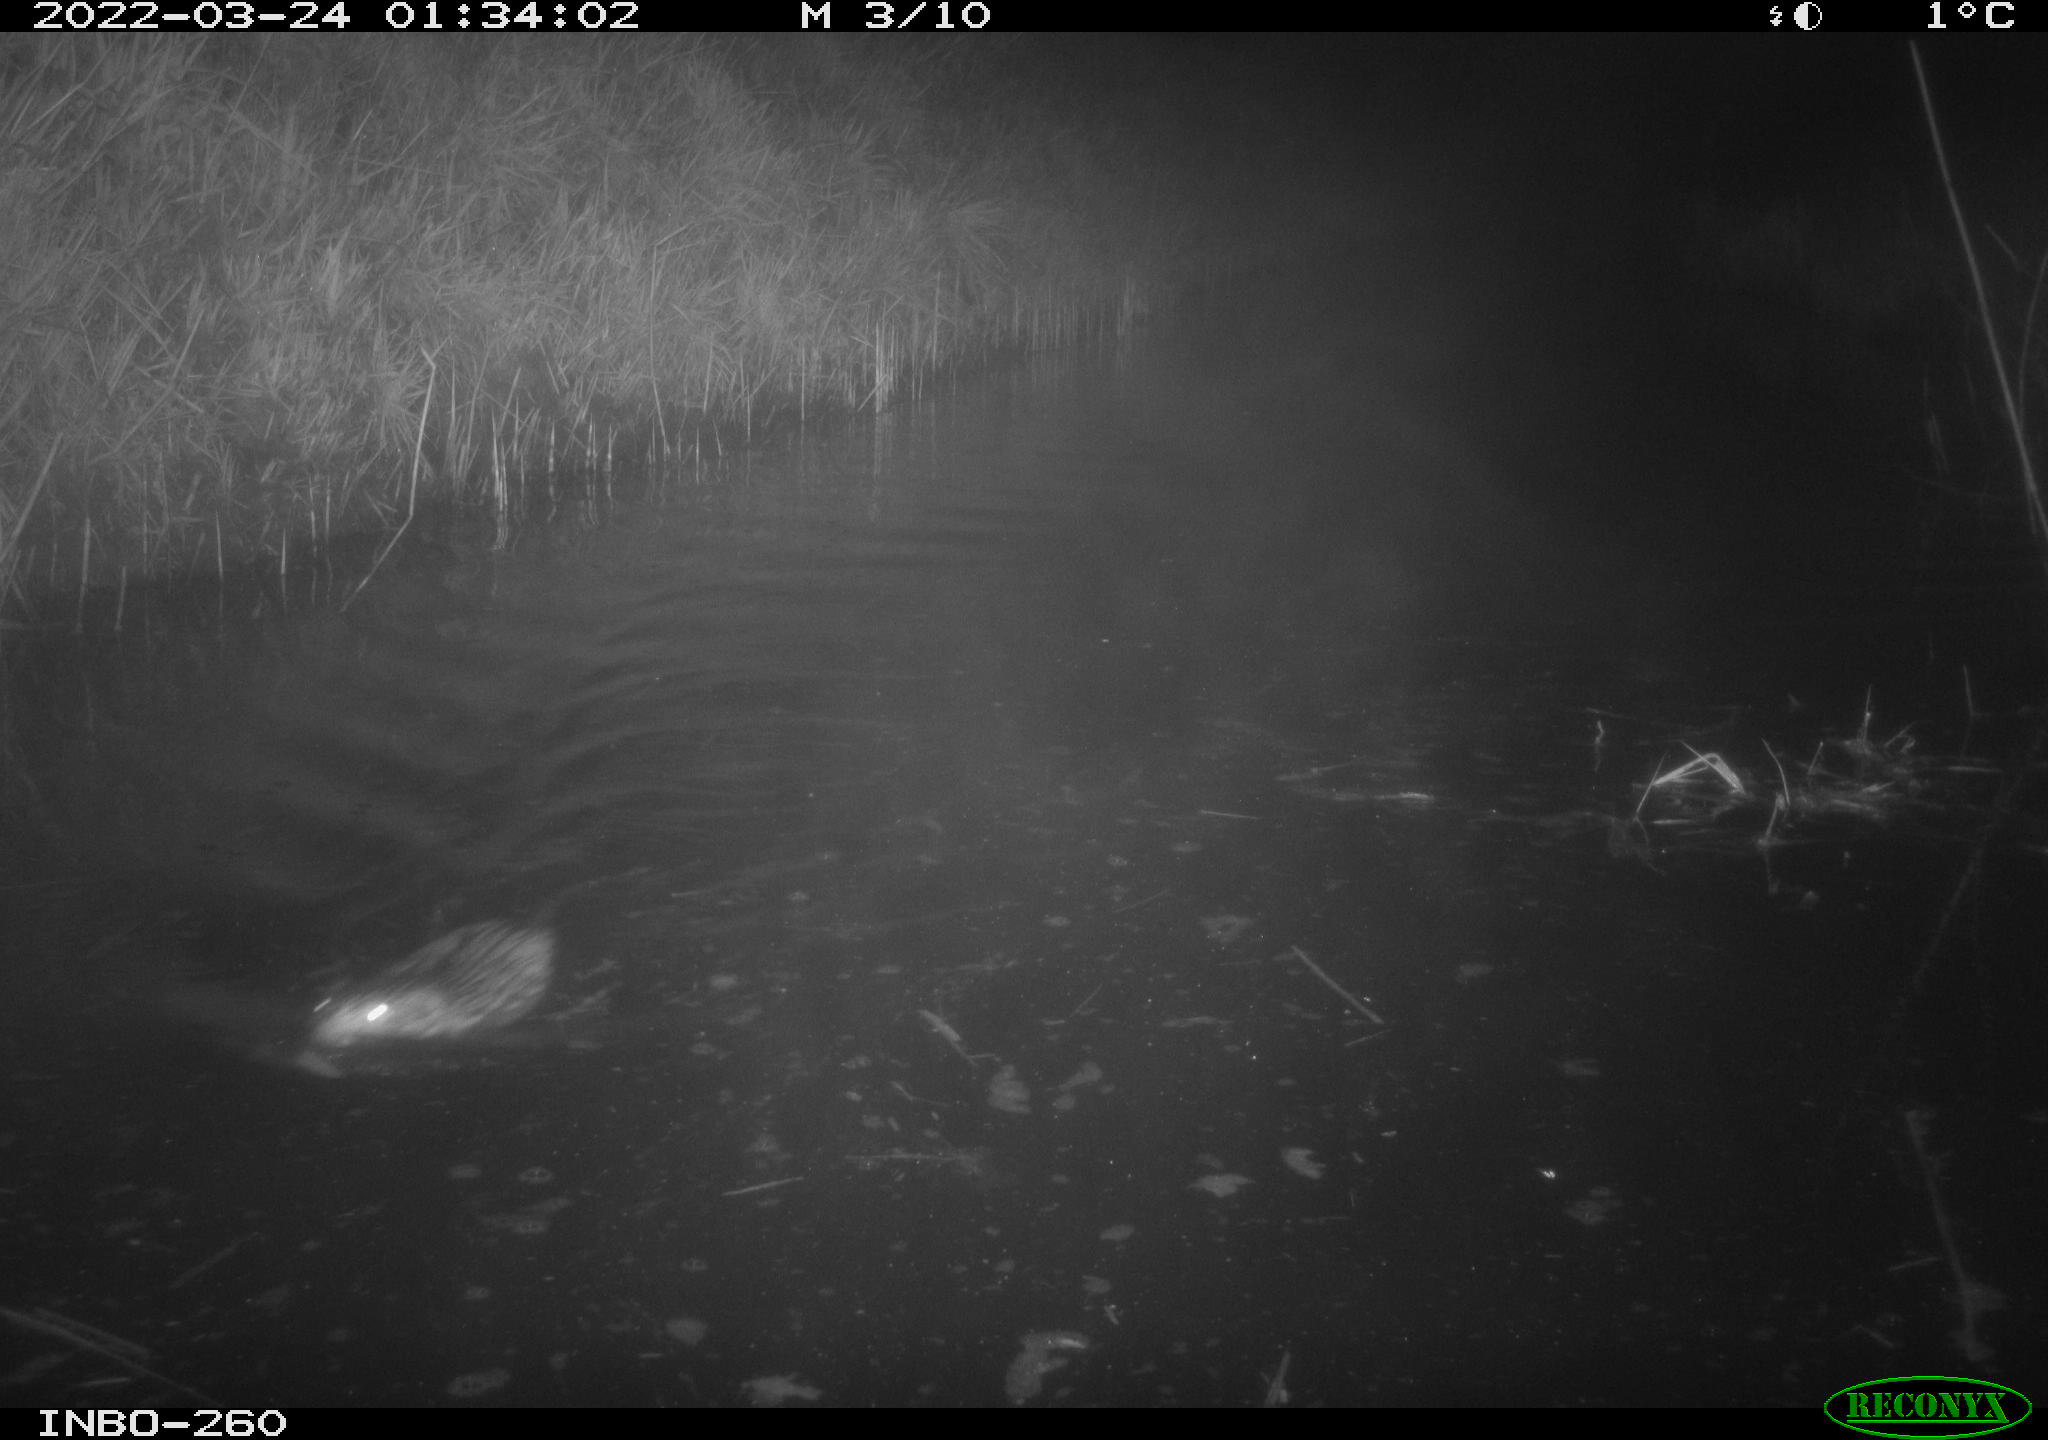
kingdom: Animalia
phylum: Chordata
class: Mammalia
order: Rodentia
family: Cricetidae
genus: Ondatra
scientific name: Ondatra zibethicus
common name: Muskrat
